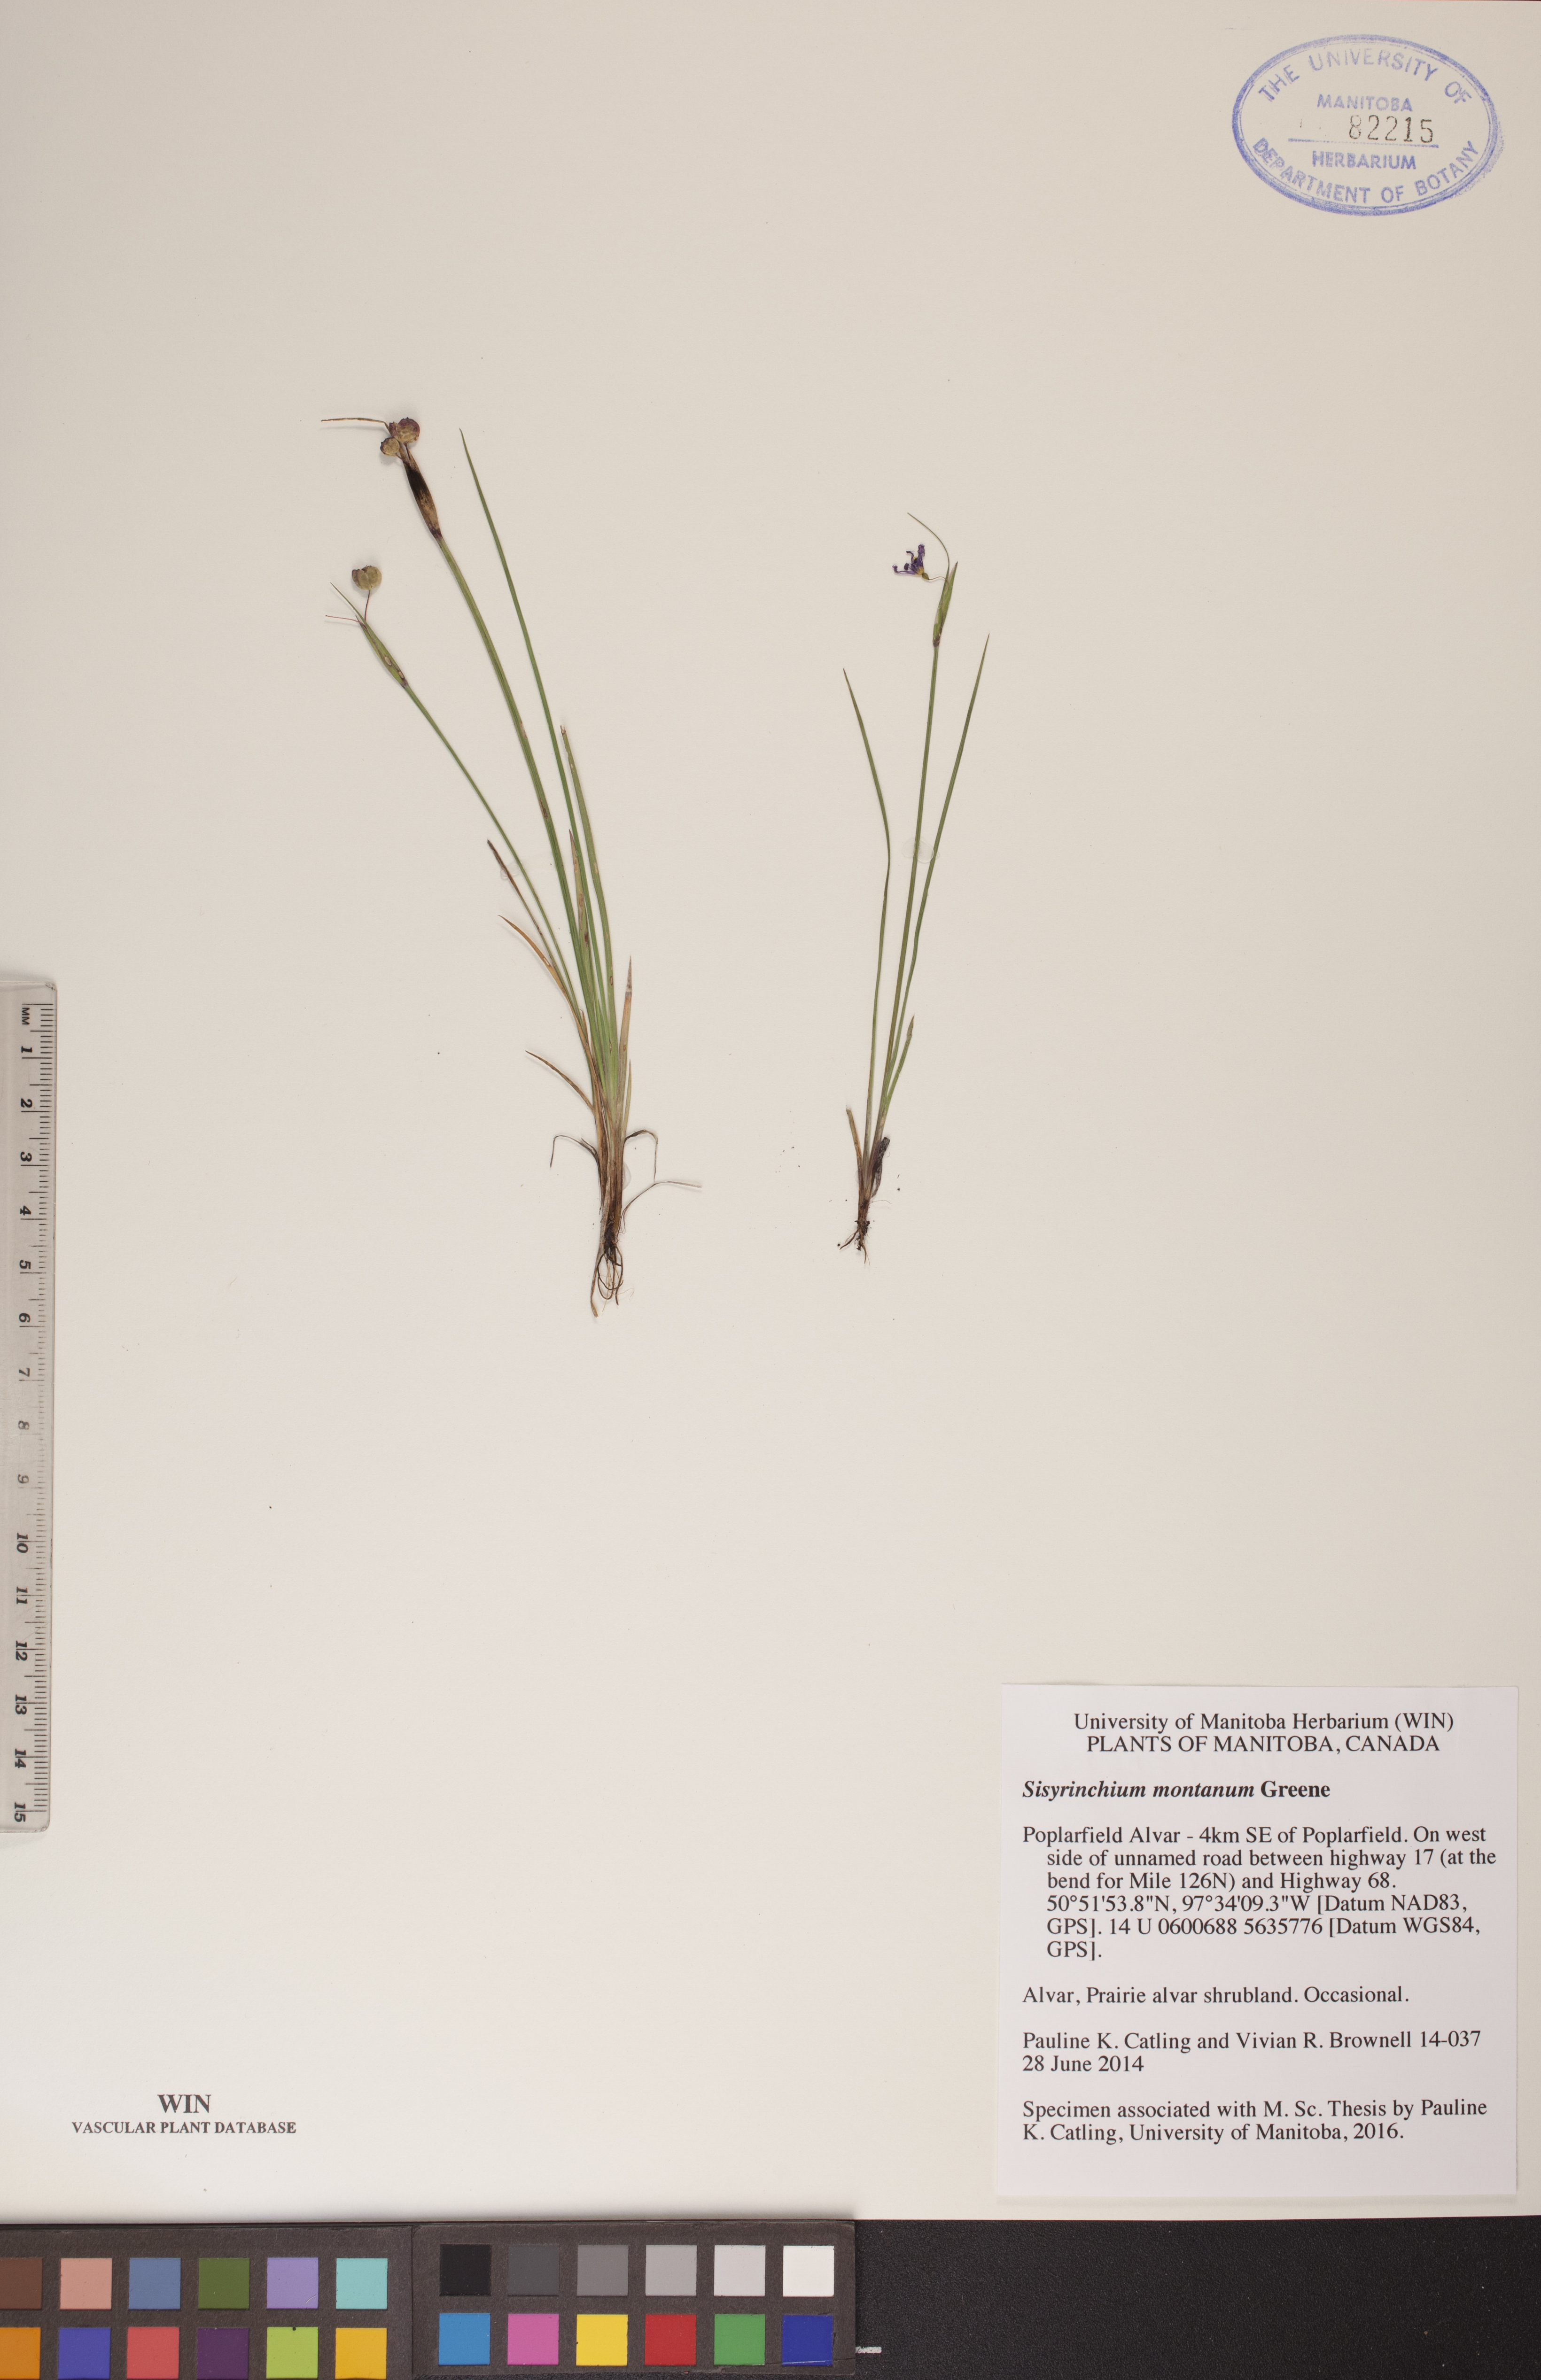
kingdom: Plantae
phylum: Tracheophyta
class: Liliopsida
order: Asparagales
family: Iridaceae
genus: Sisyrinchium
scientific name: Sisyrinchium montanum
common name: American blue-eyed-grass
